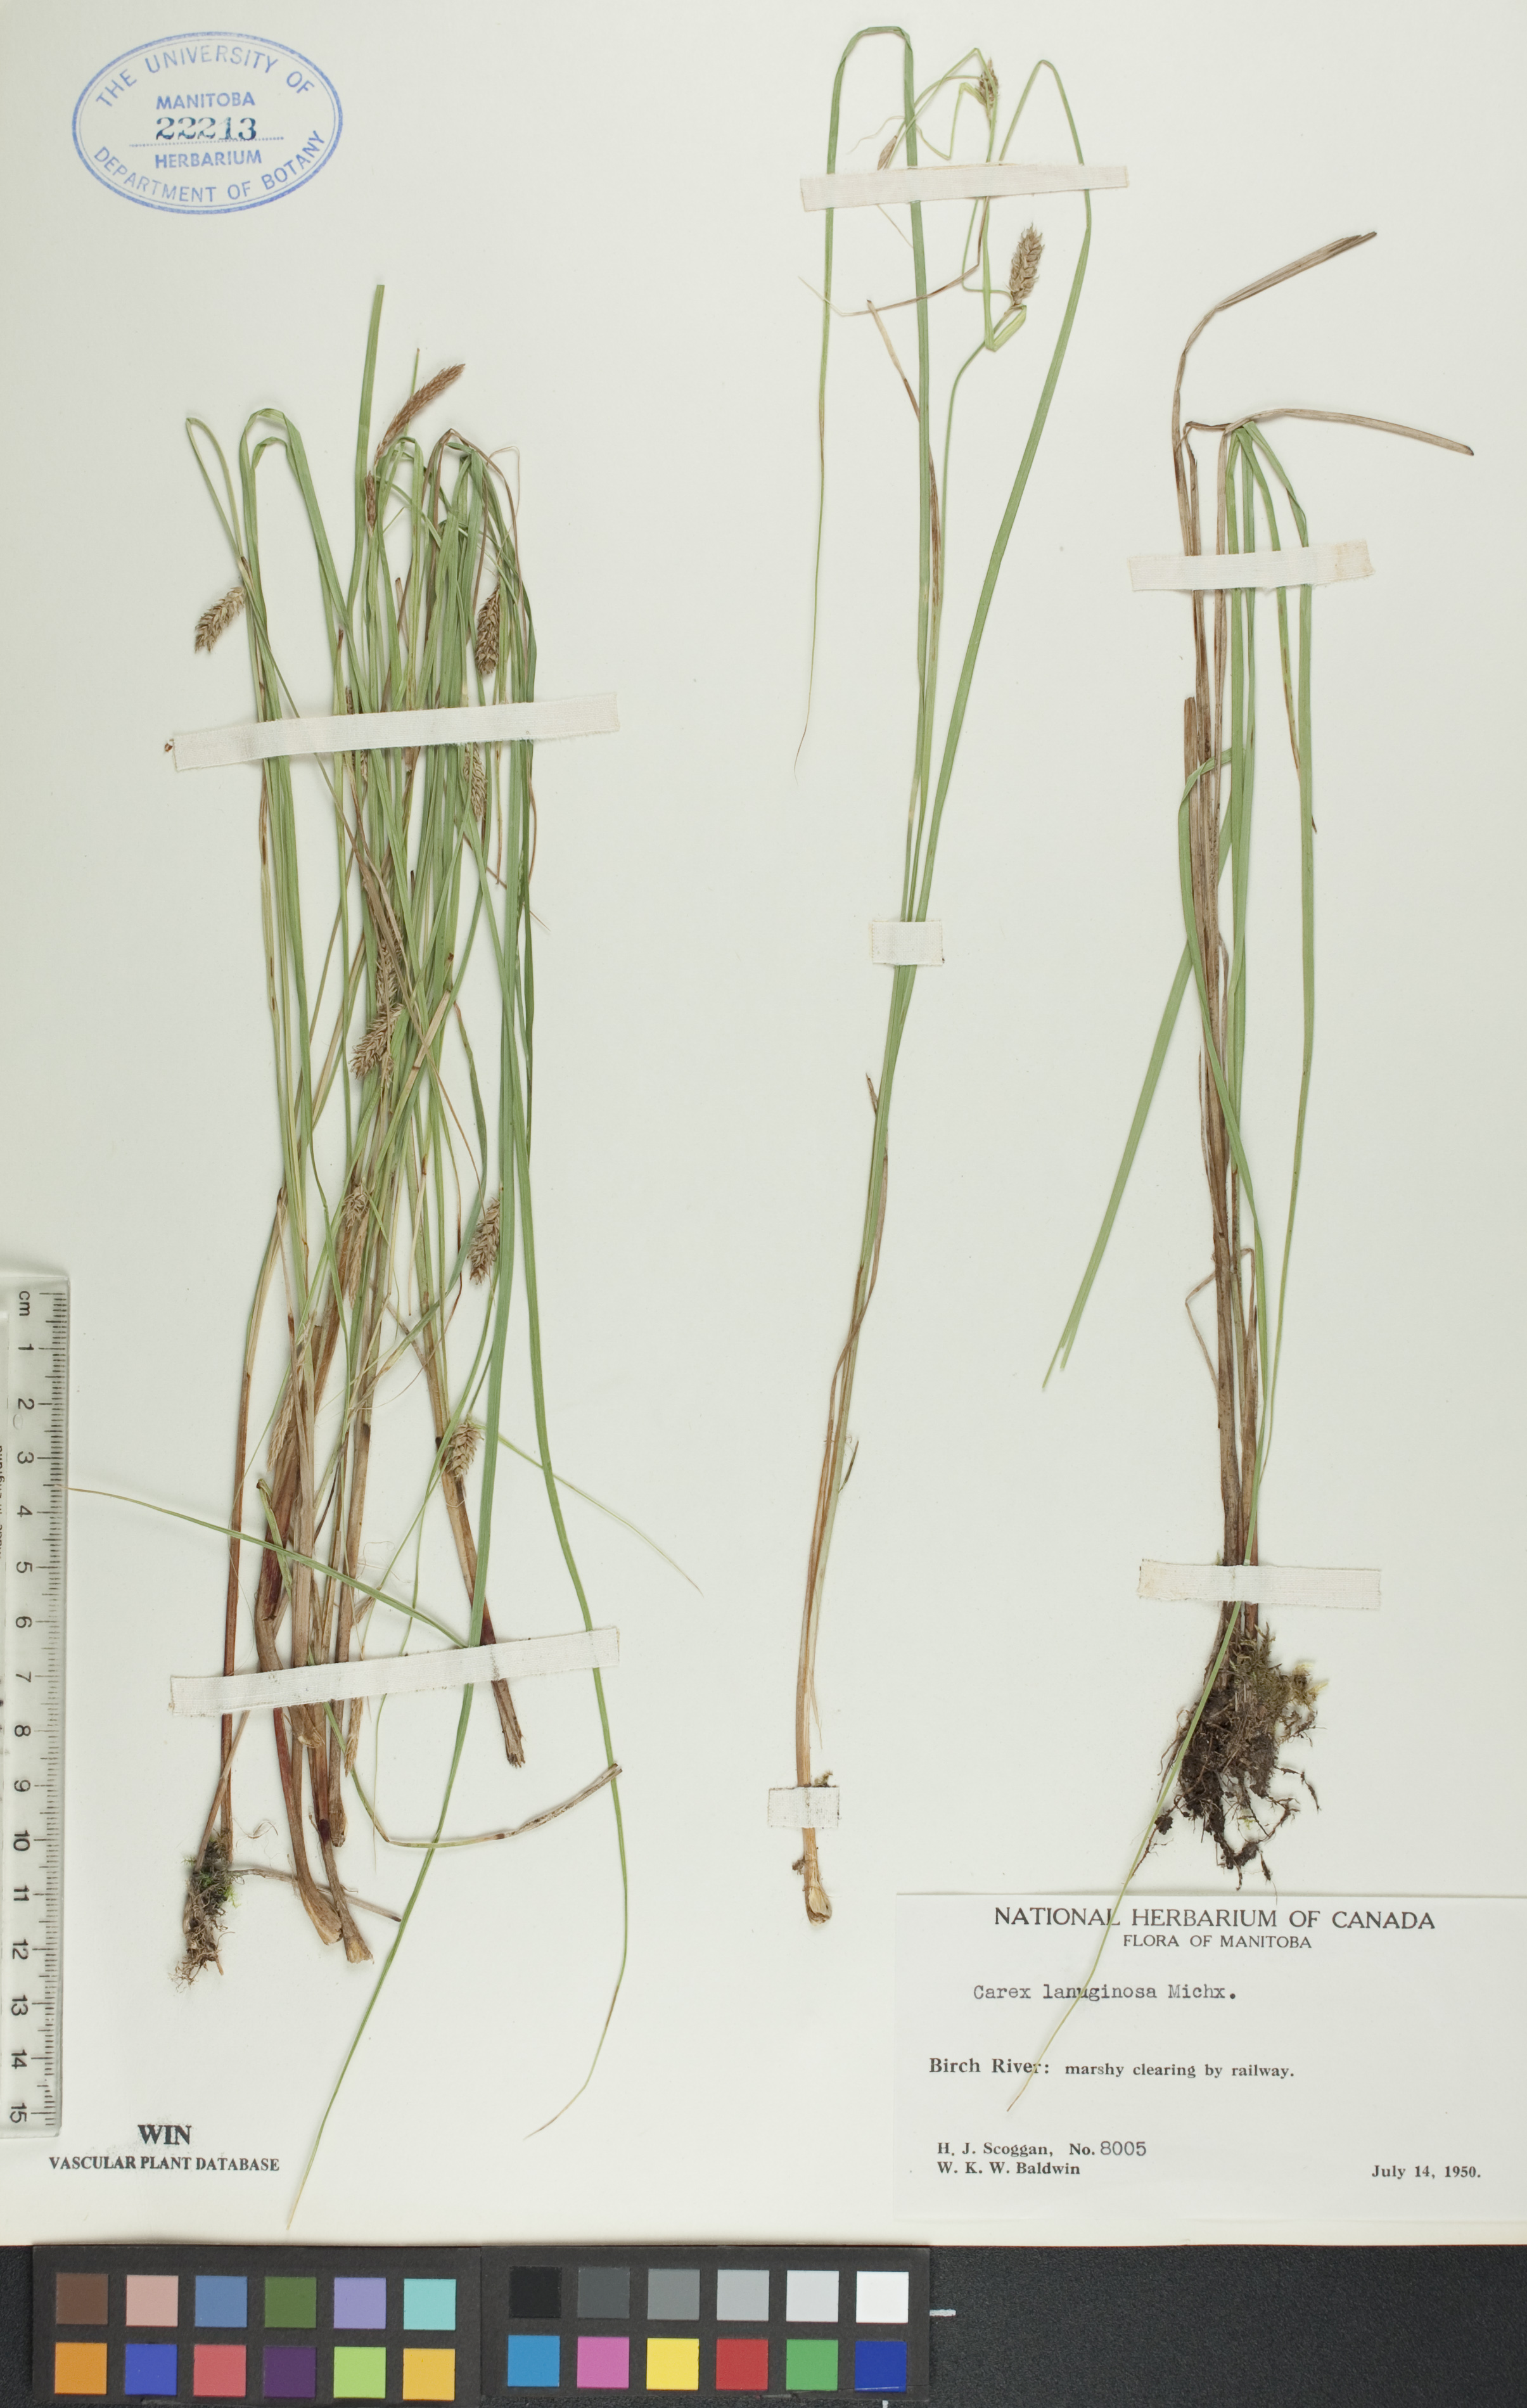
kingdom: Plantae
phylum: Tracheophyta
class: Liliopsida
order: Poales
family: Cyperaceae
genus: Carex
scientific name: Carex lasiocarpa
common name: Slender sedge
